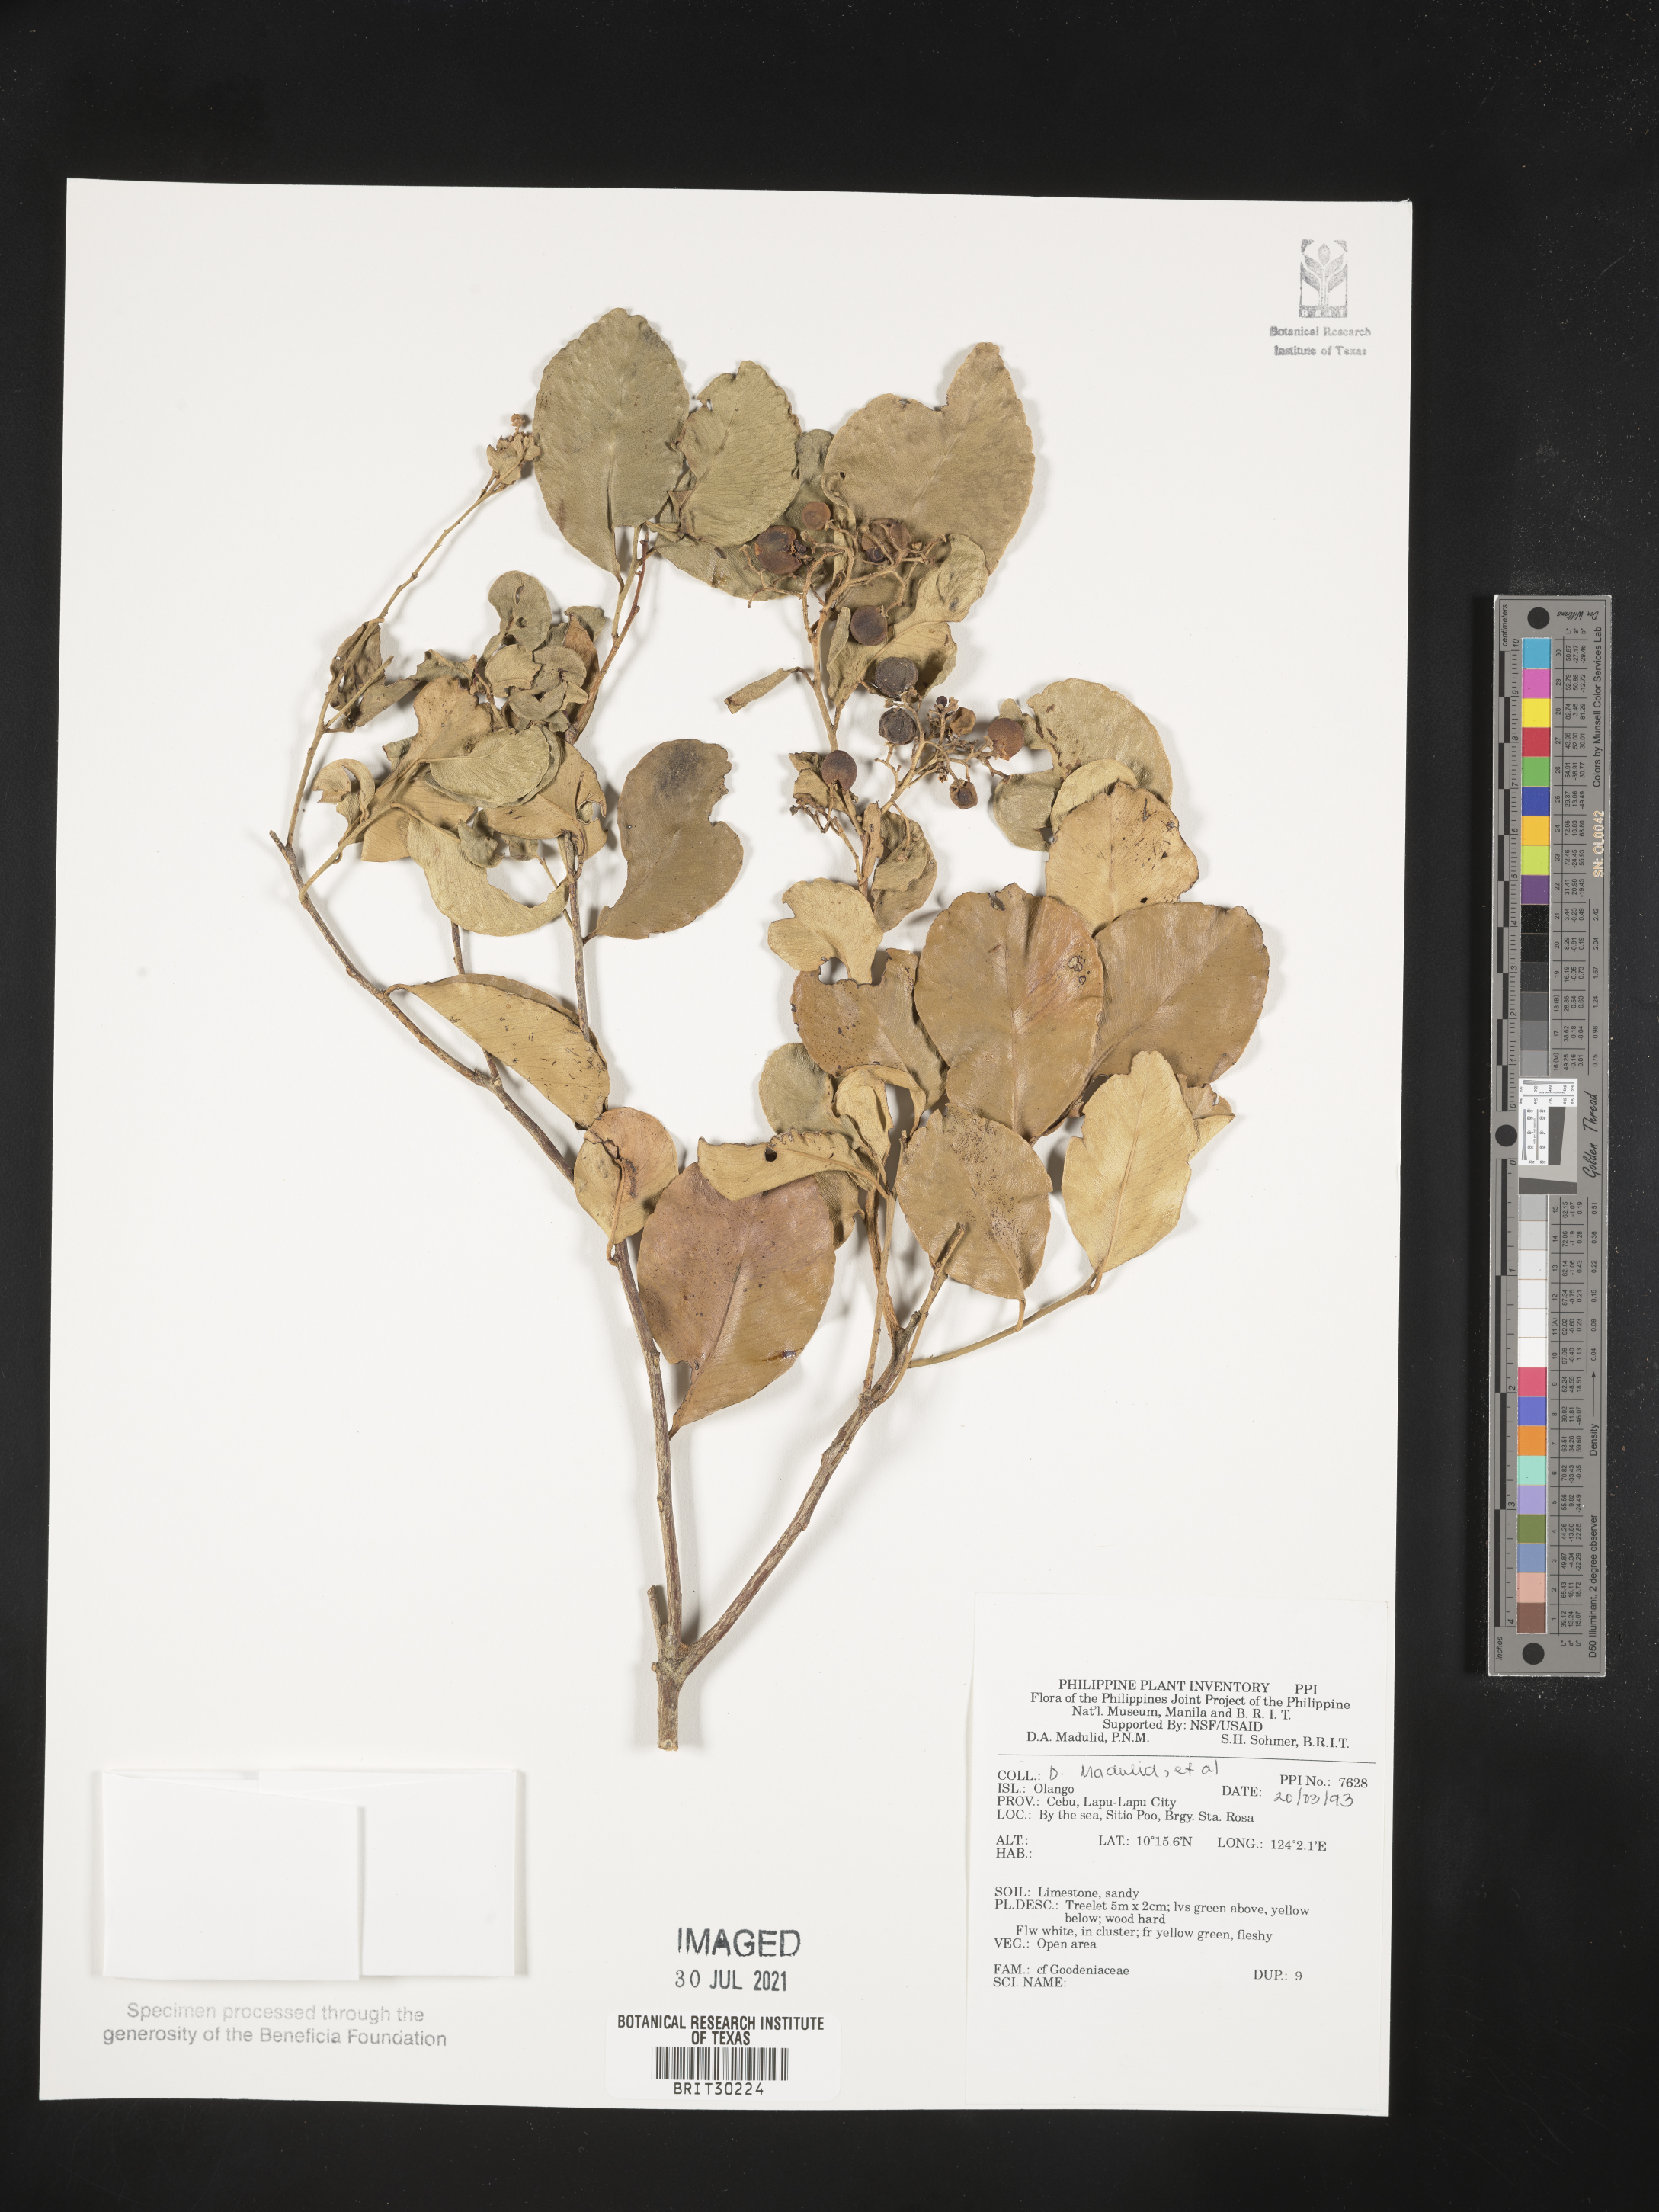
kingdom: Plantae
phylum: Tracheophyta
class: Magnoliopsida
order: Asterales
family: Goodeniaceae
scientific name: Goodeniaceae
